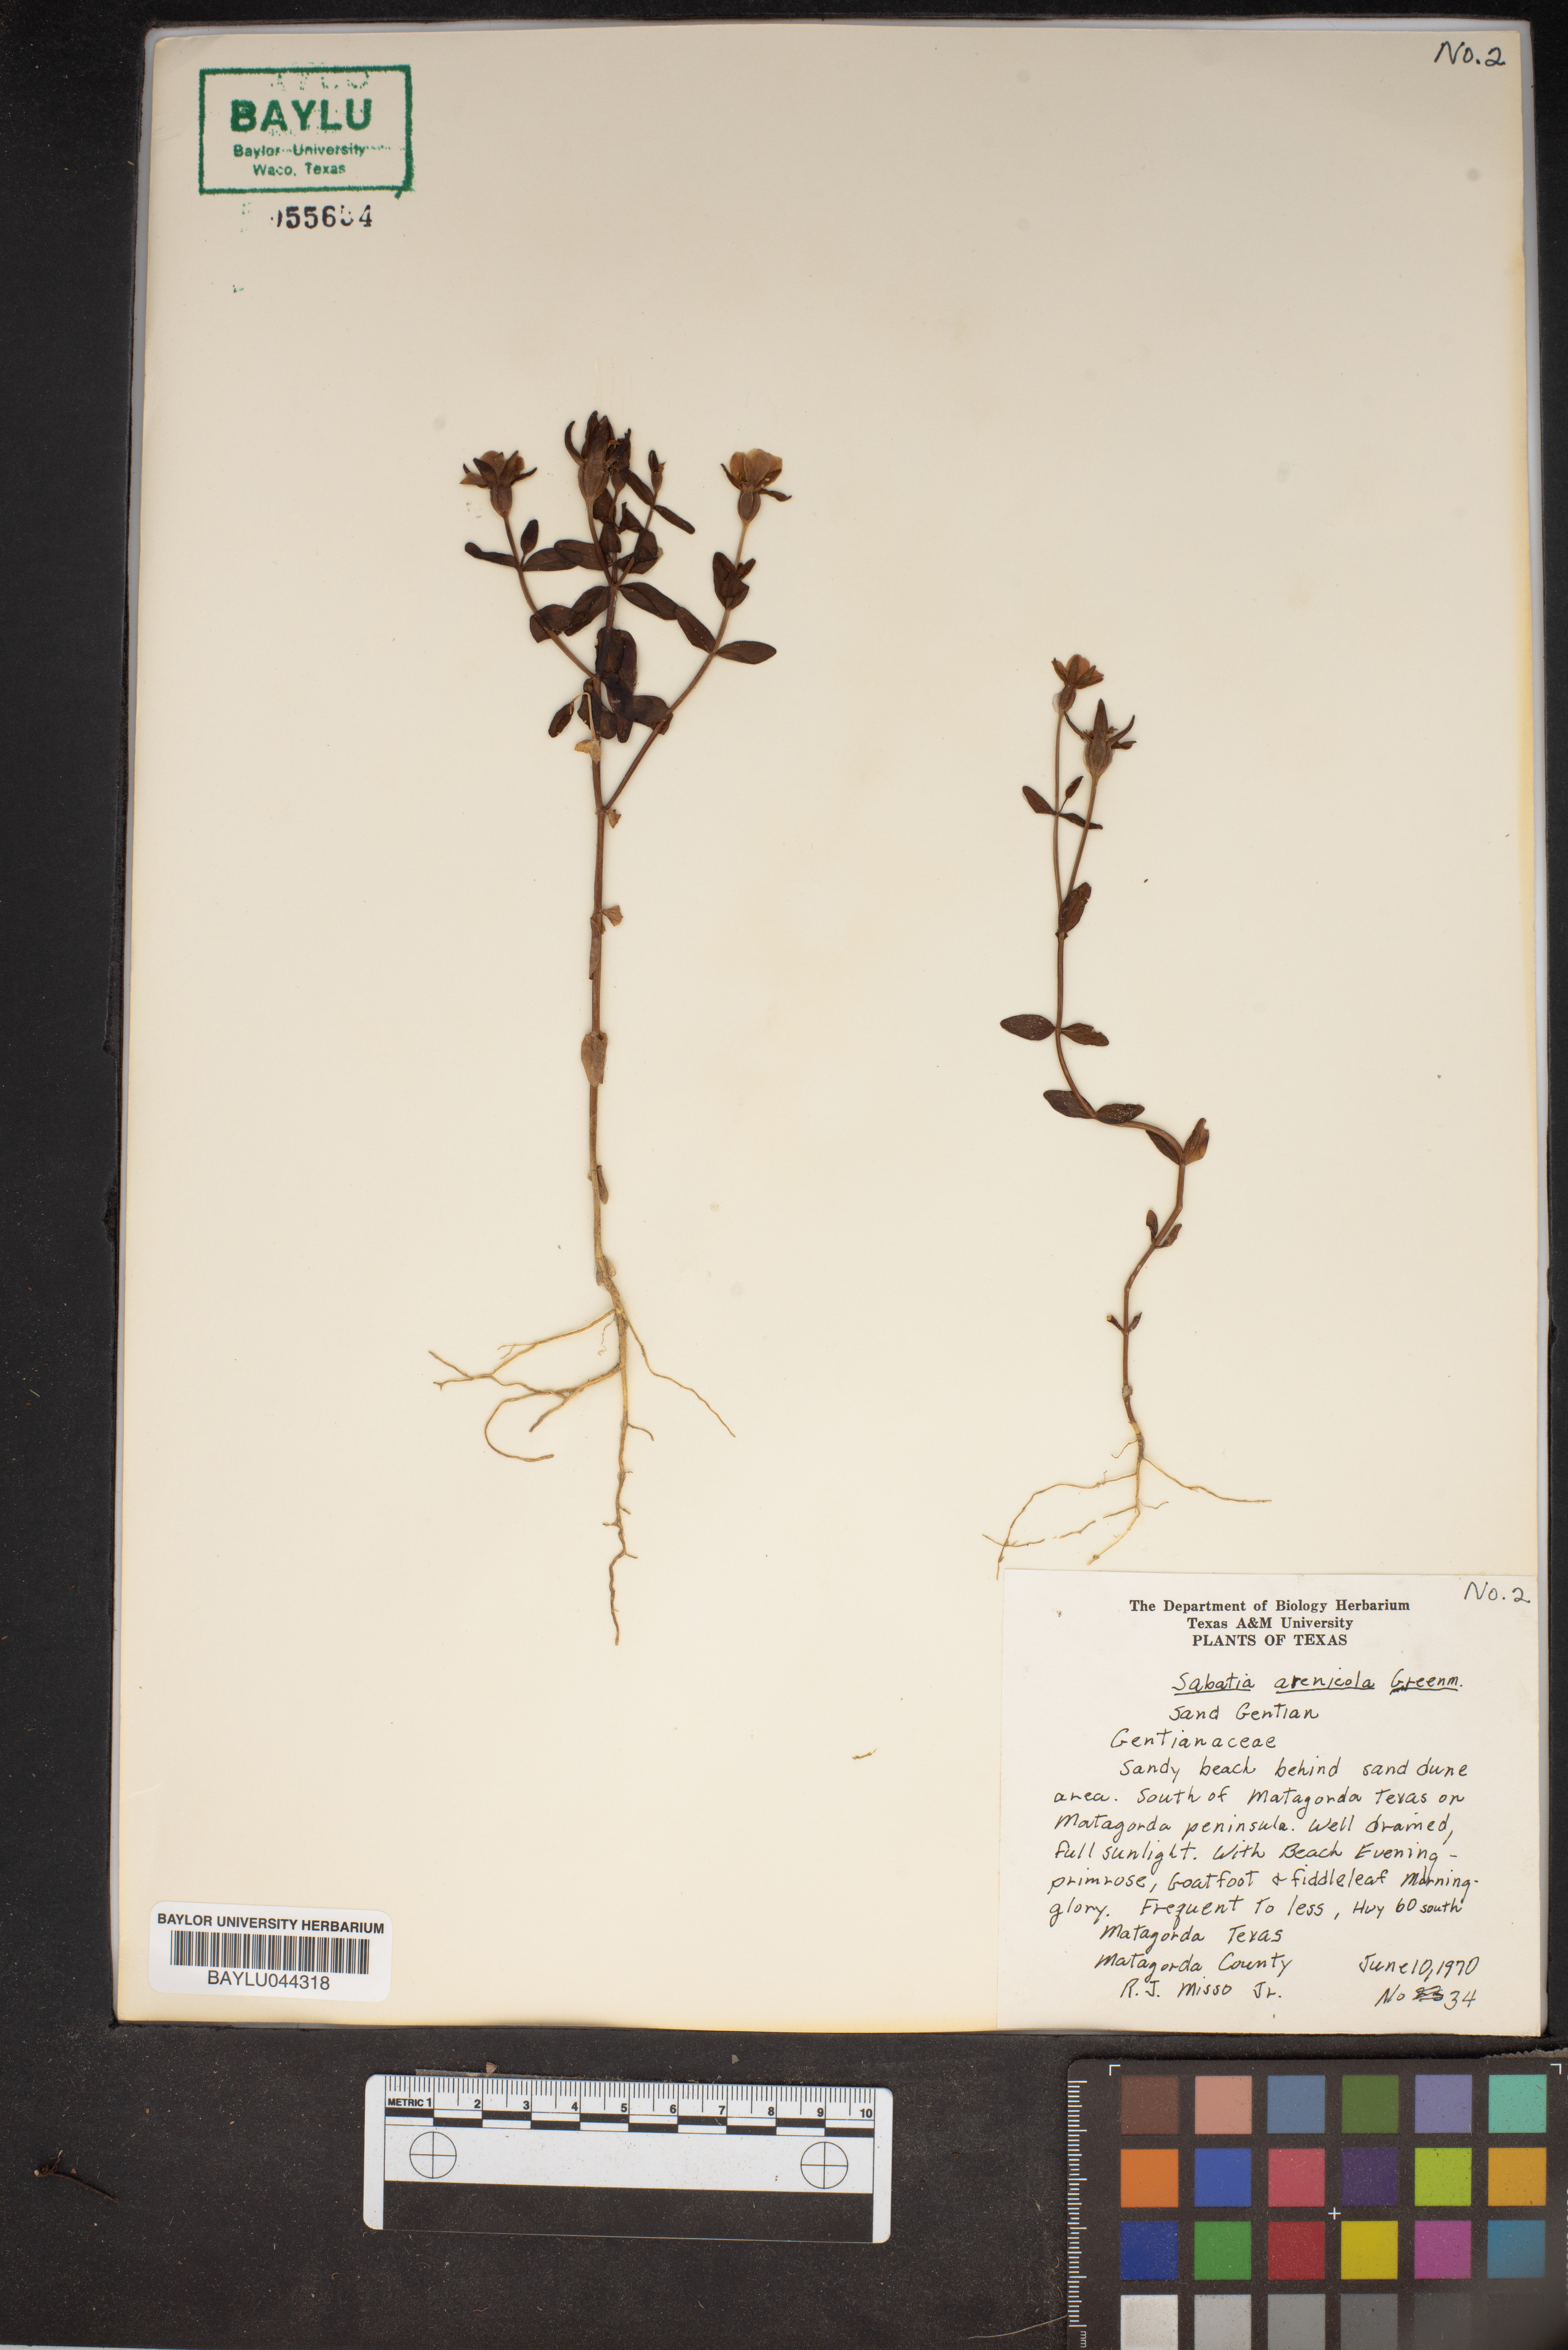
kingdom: Plantae
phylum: Tracheophyta
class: Magnoliopsida
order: Gentianales
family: Gentianaceae
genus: Sabatia
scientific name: Sabatia arenicola
